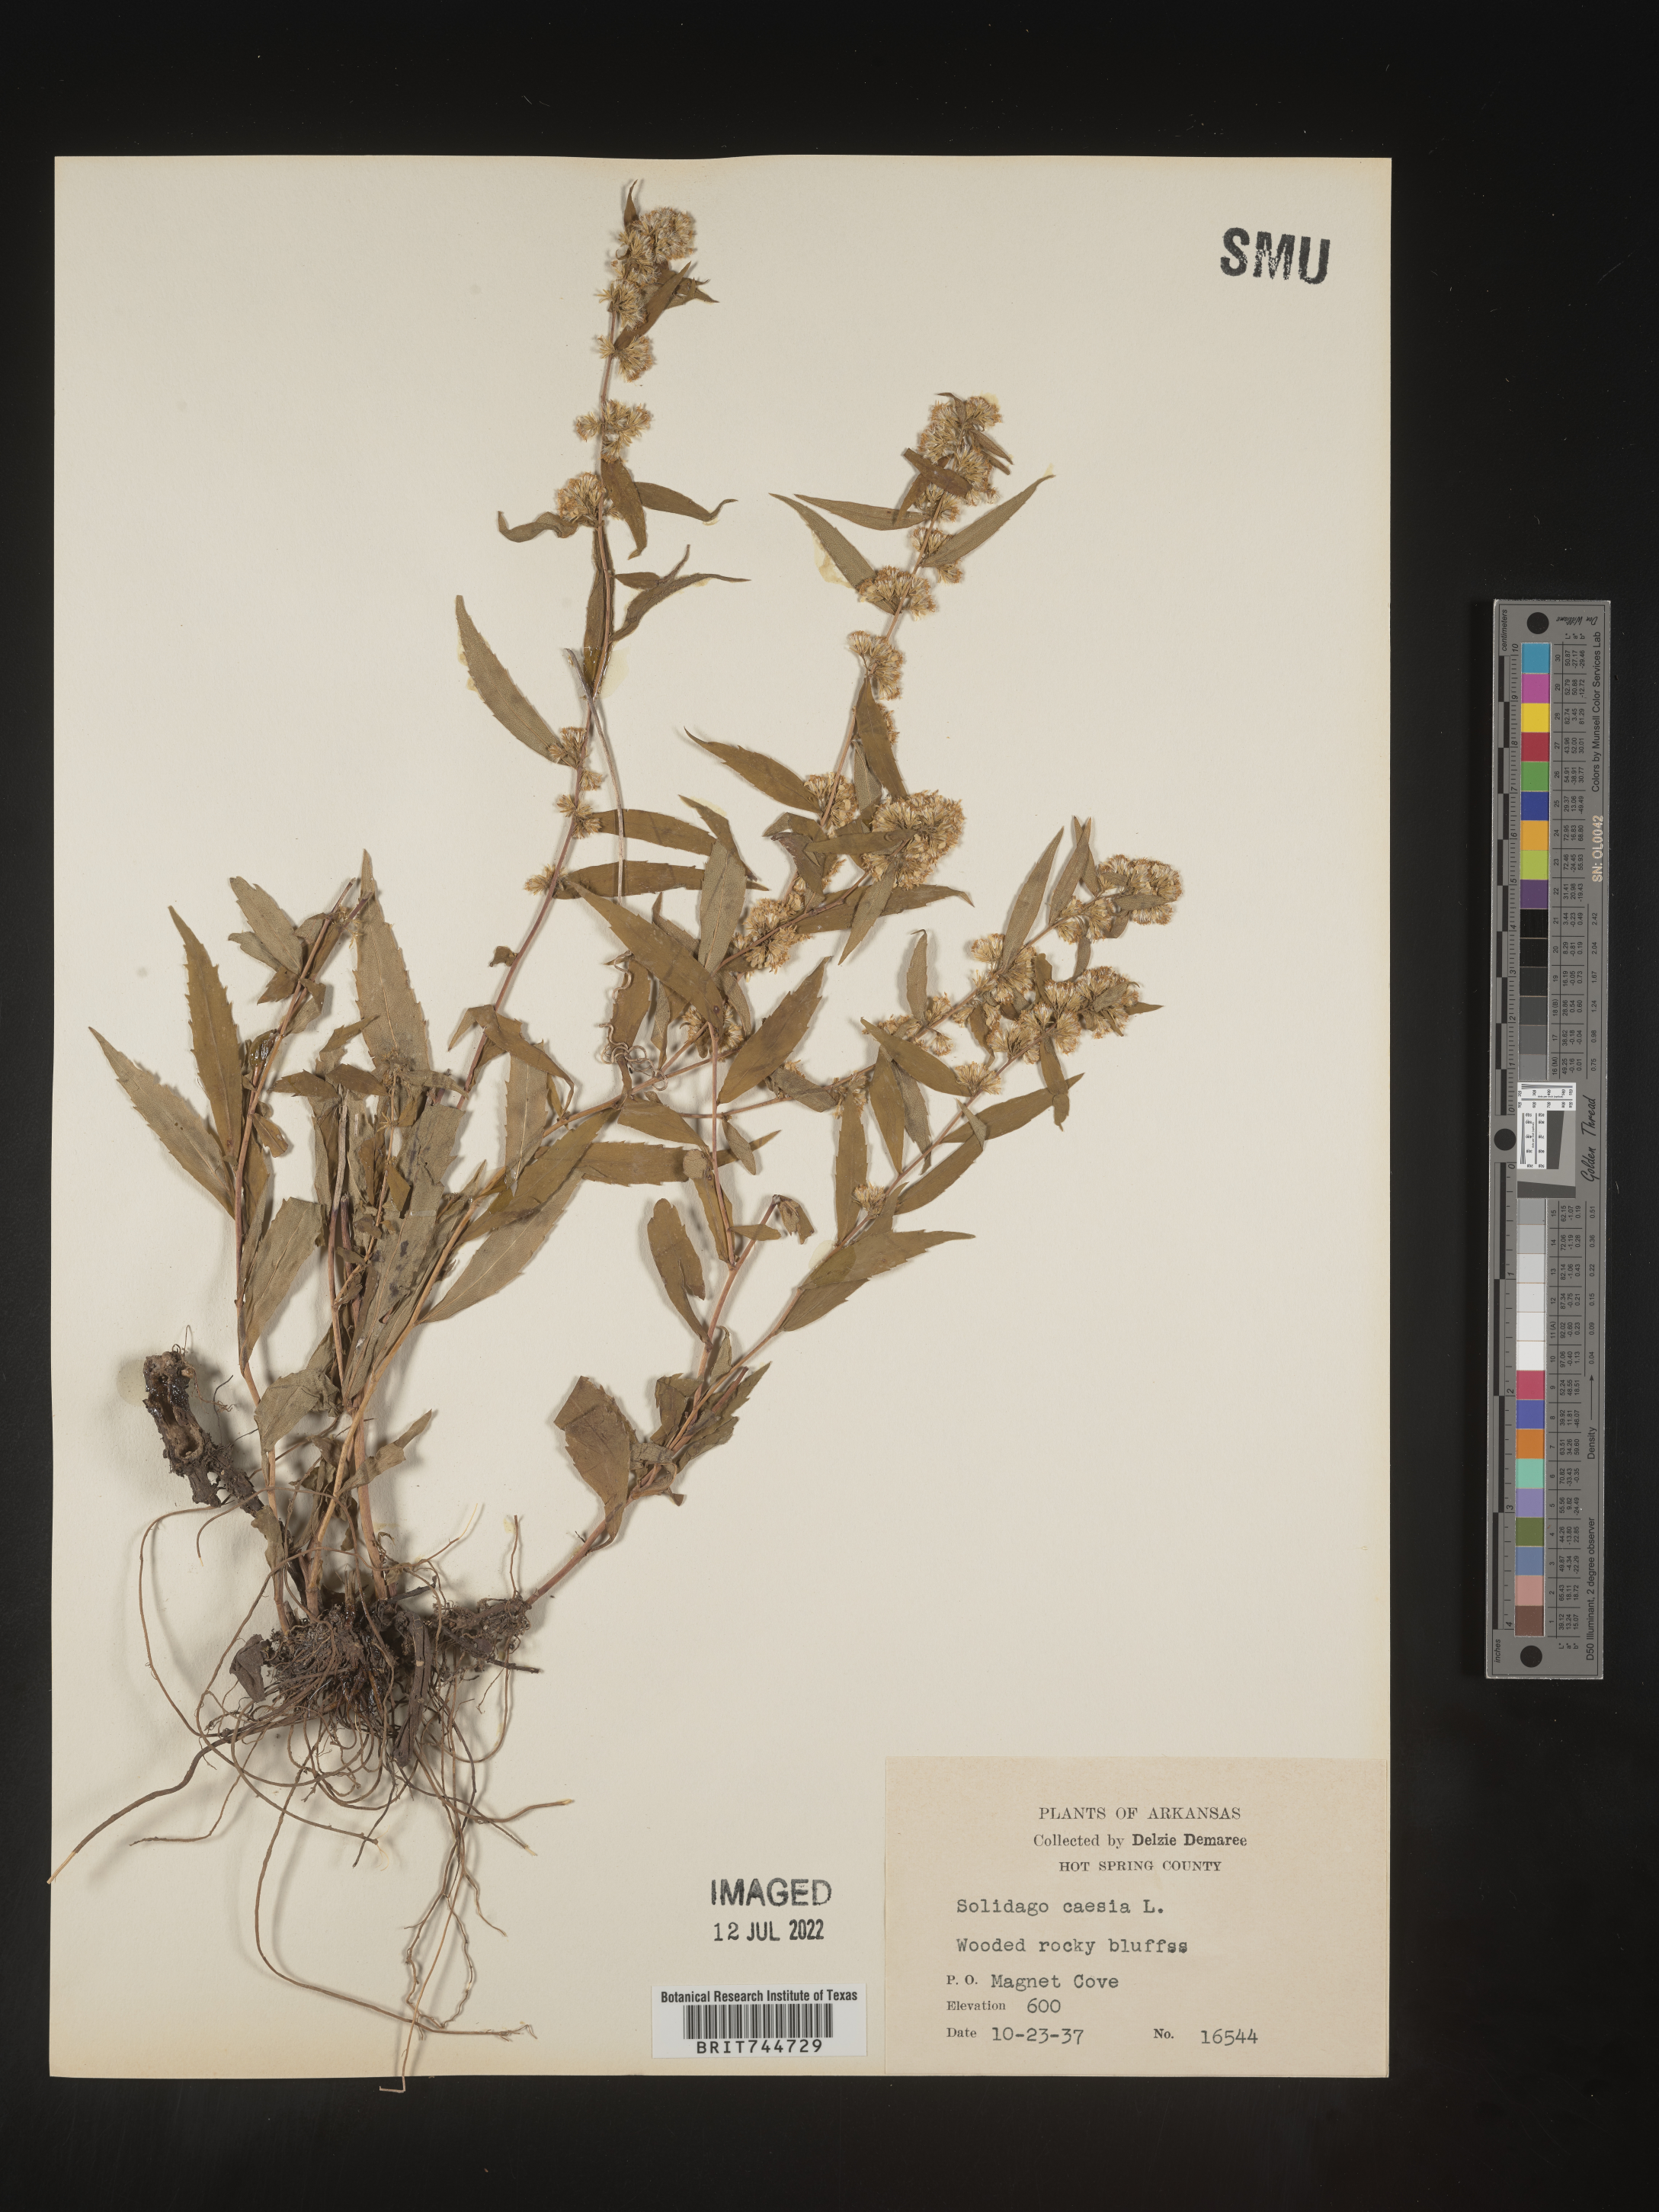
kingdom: Plantae
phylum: Tracheophyta
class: Magnoliopsida
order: Asterales
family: Asteraceae
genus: Solidago
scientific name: Solidago caesia
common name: Woodland goldenrod
